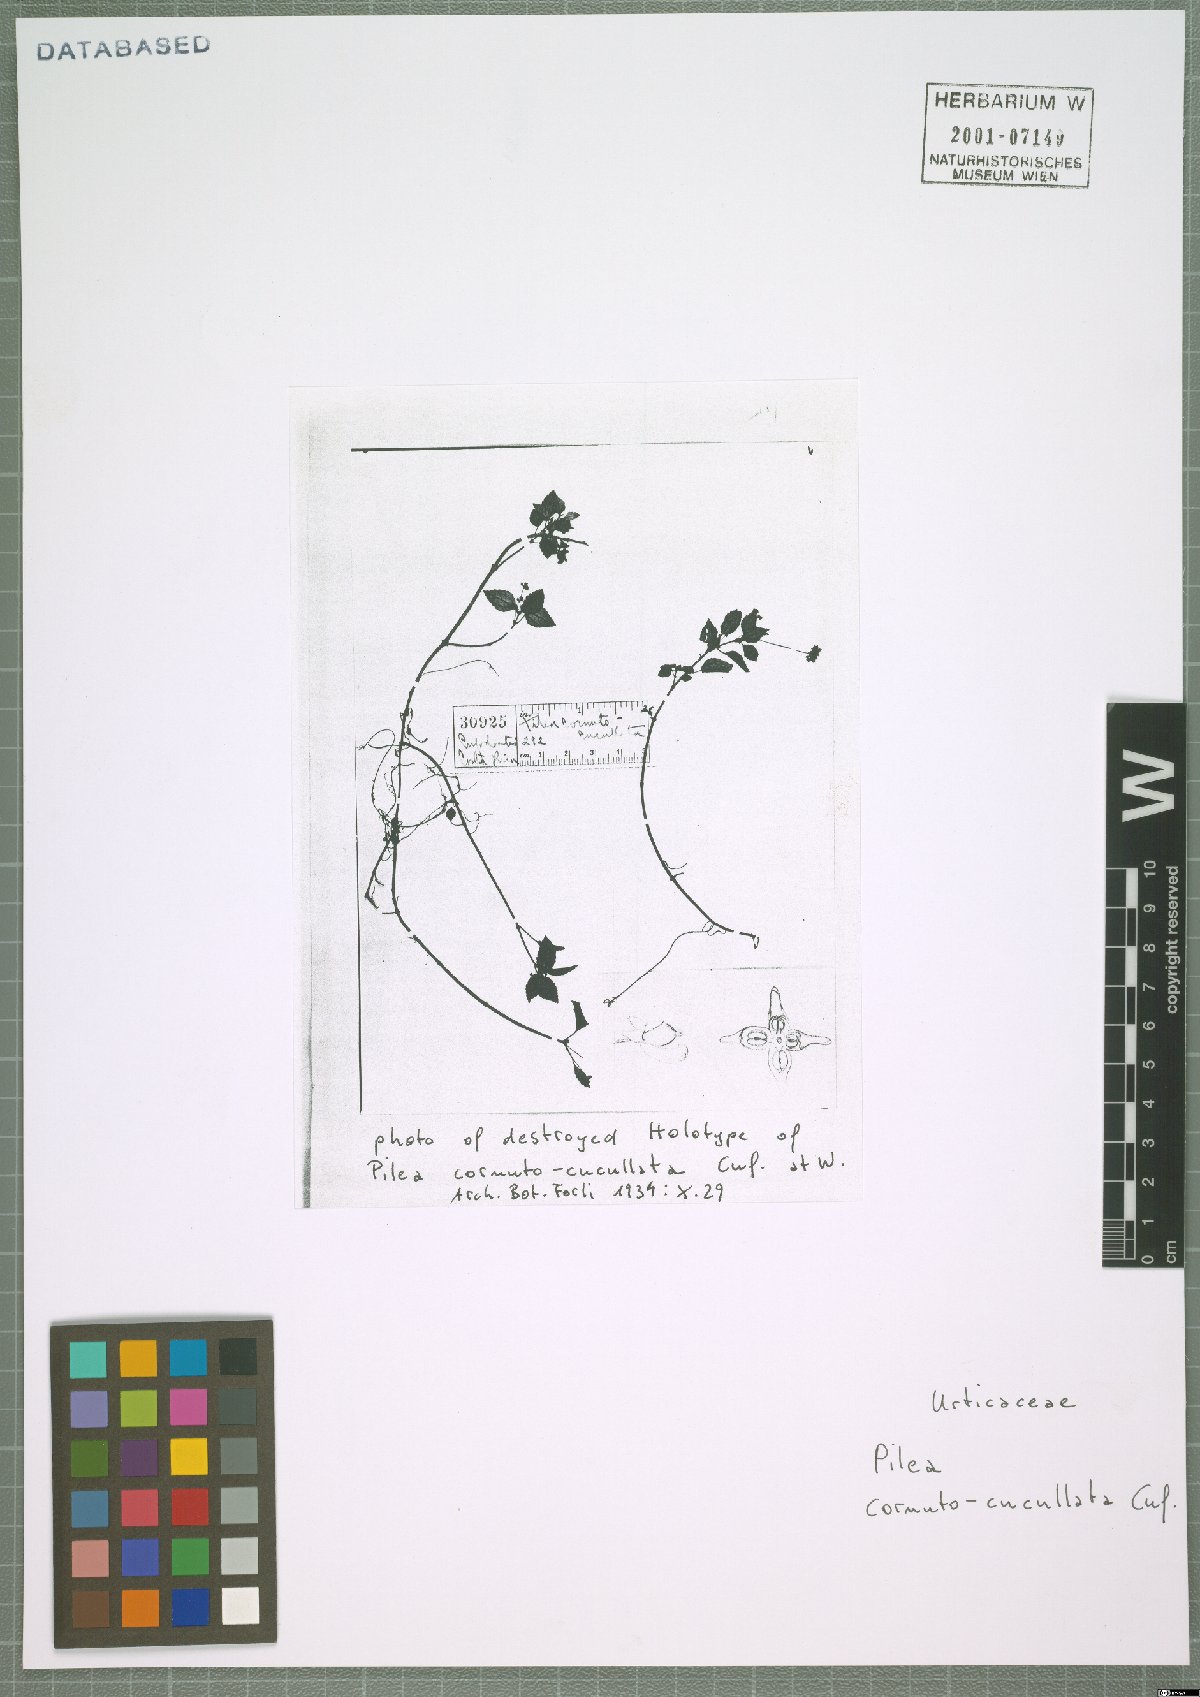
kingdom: Plantae
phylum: Tracheophyta
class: Magnoliopsida
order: Rosales
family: Urticaceae
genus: Pilea
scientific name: Pilea cornutocucullata
